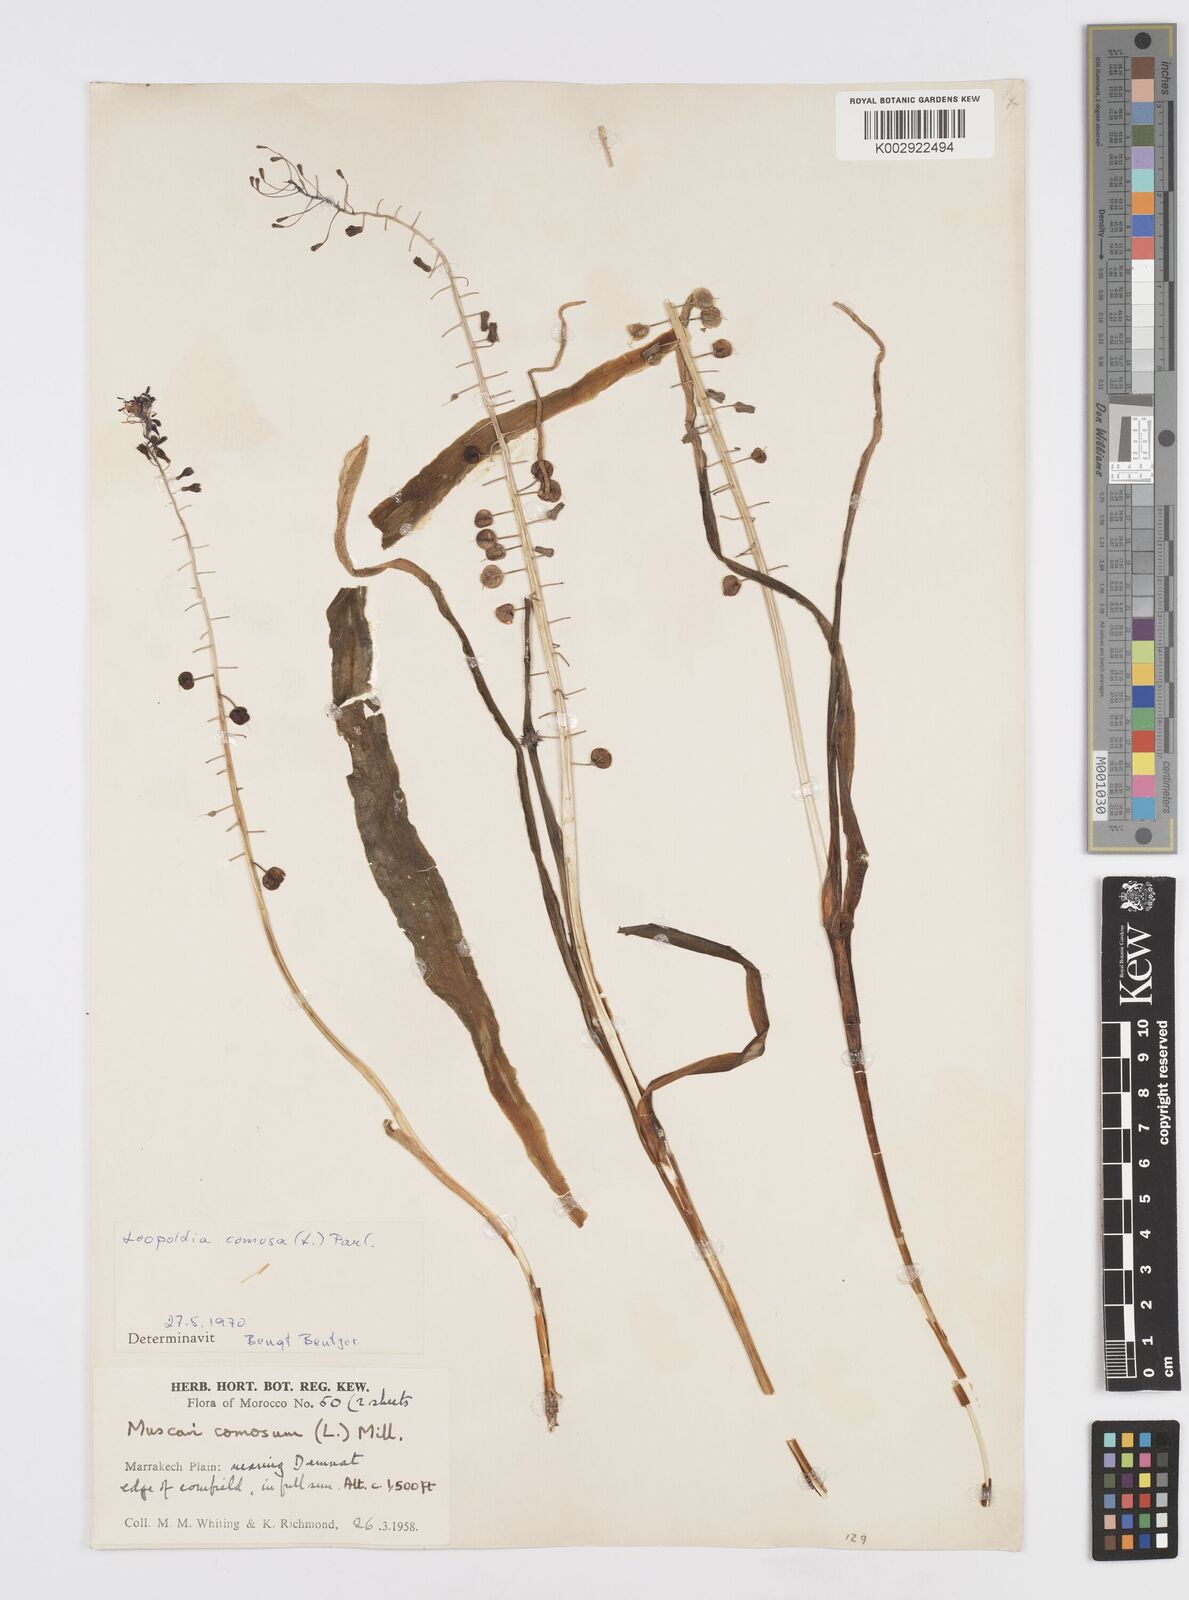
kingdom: Plantae
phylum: Tracheophyta
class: Liliopsida
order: Asparagales
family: Asparagaceae
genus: Muscari
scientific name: Muscari comosum
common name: Tassel hyacinth
